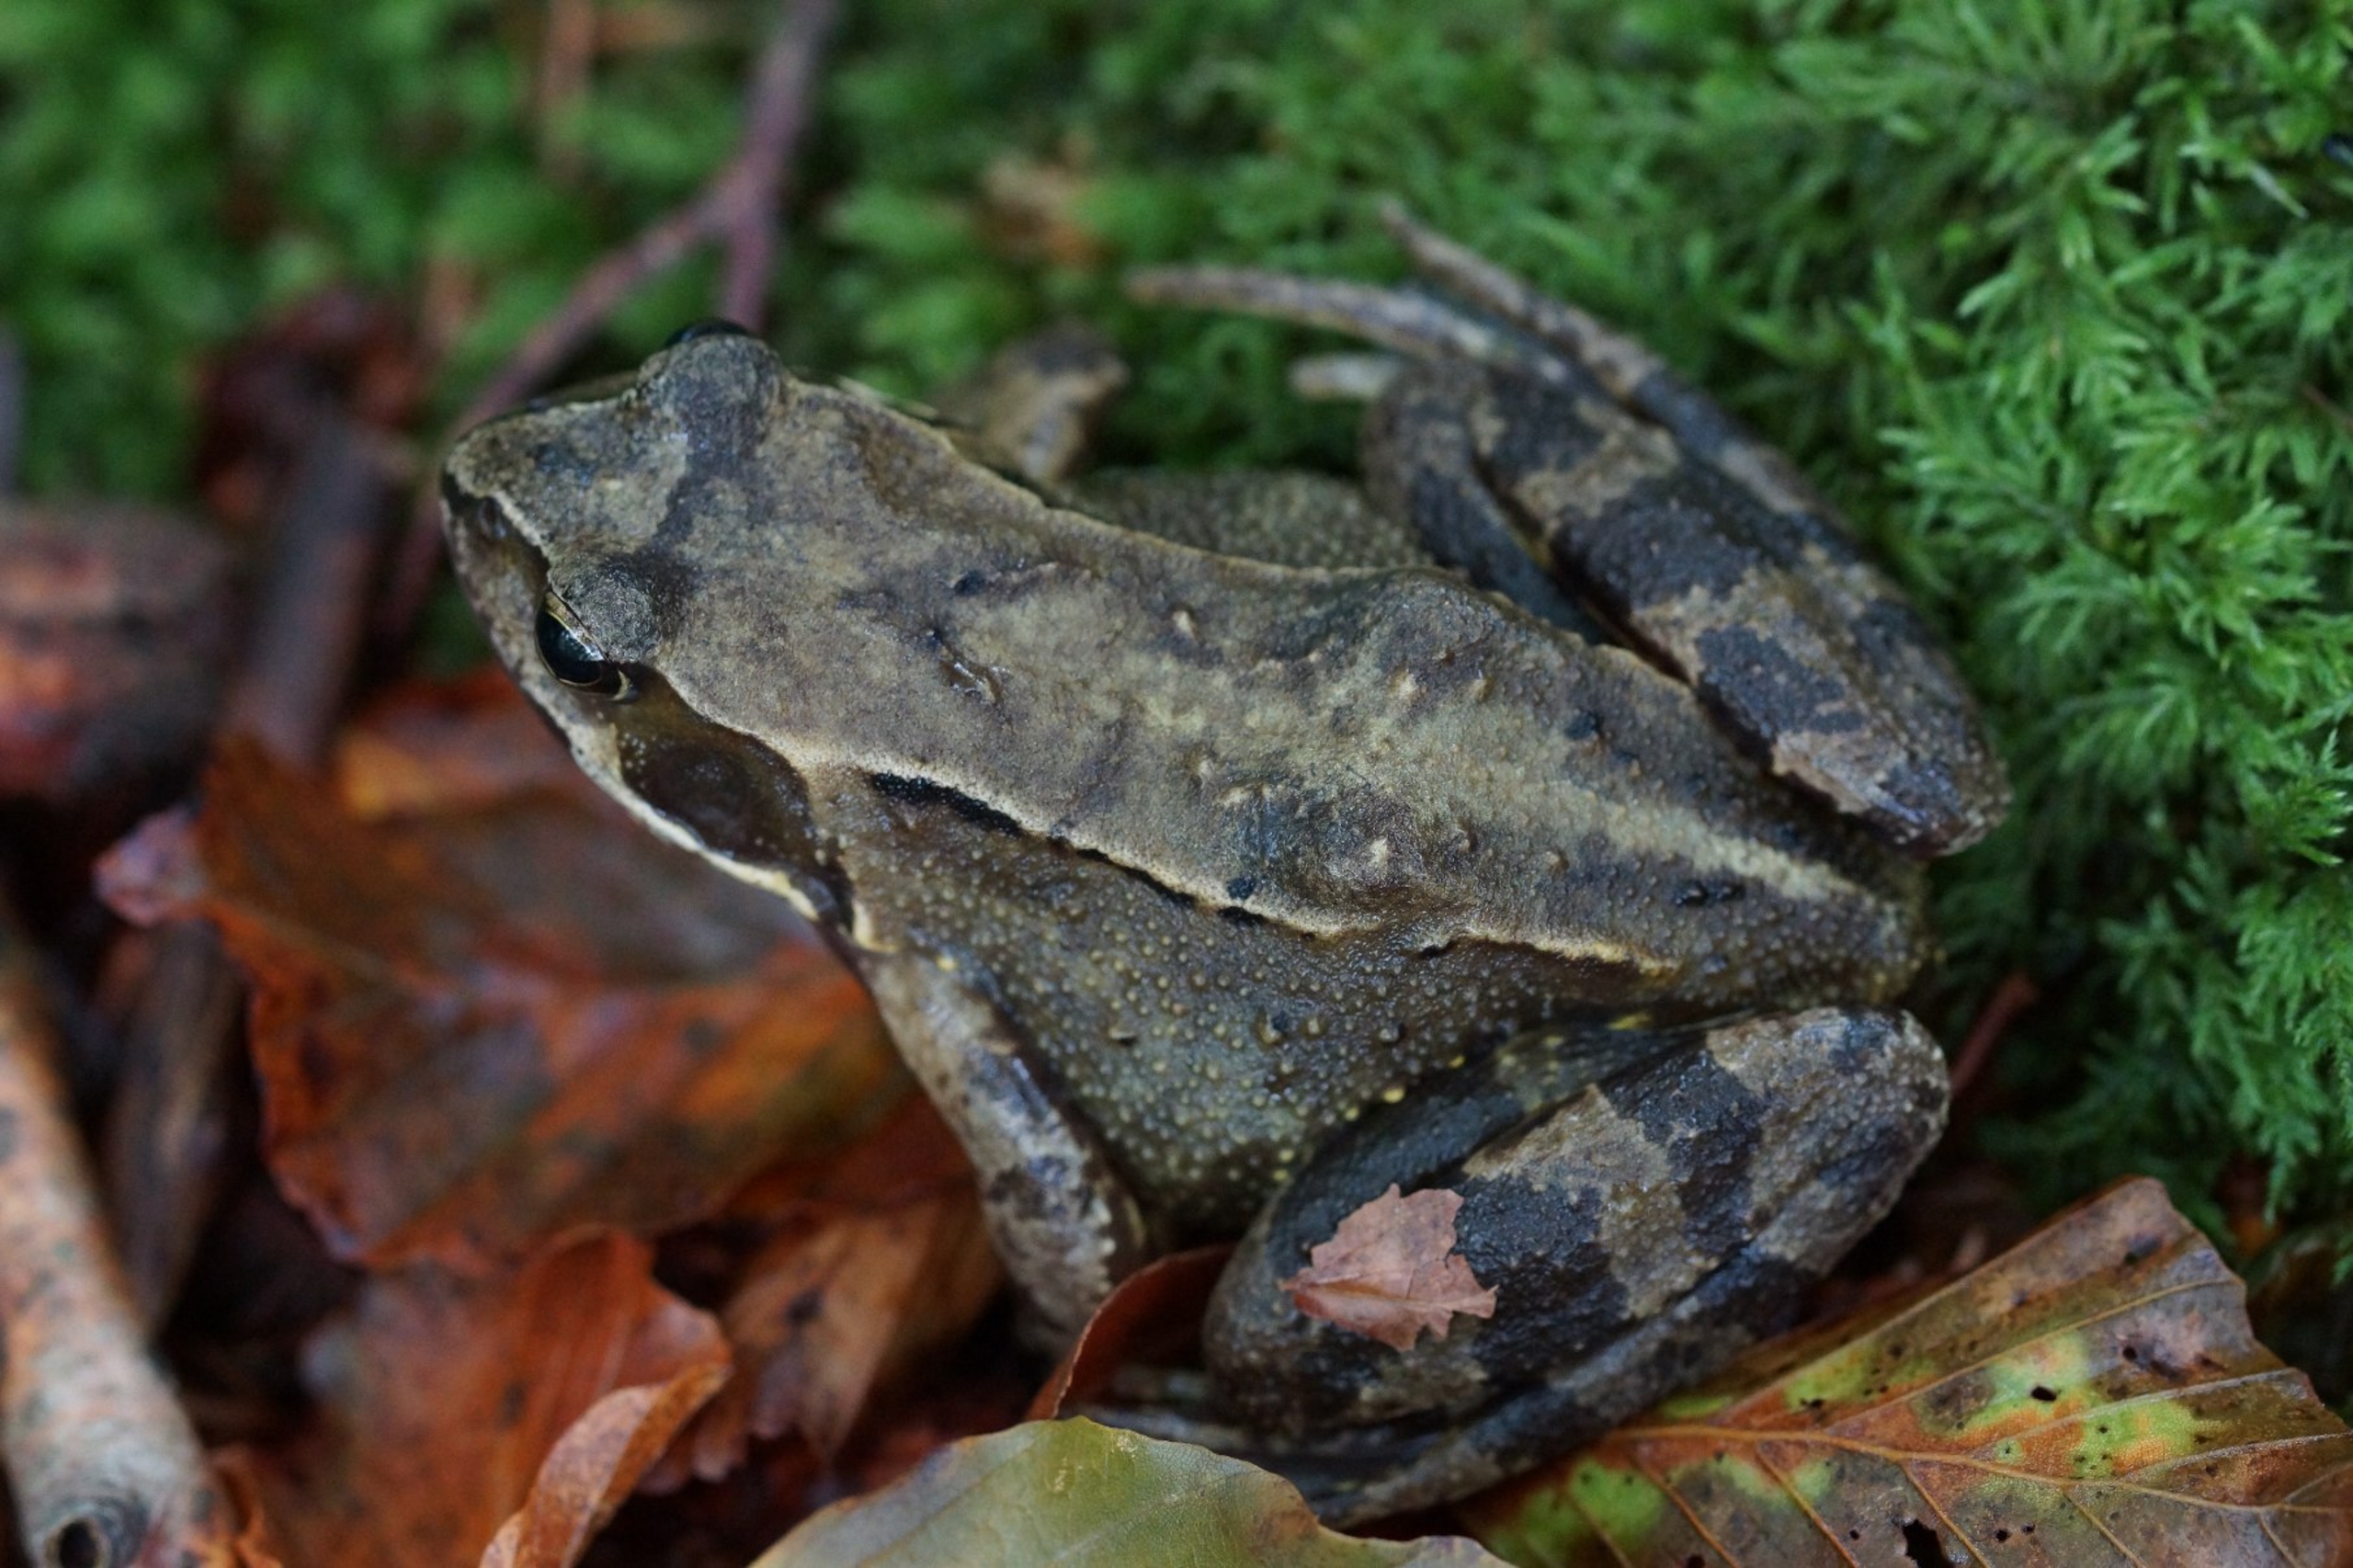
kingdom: Animalia
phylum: Chordata
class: Amphibia
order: Anura
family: Ranidae
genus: Rana
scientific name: Rana temporaria
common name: Butsnudet frø
